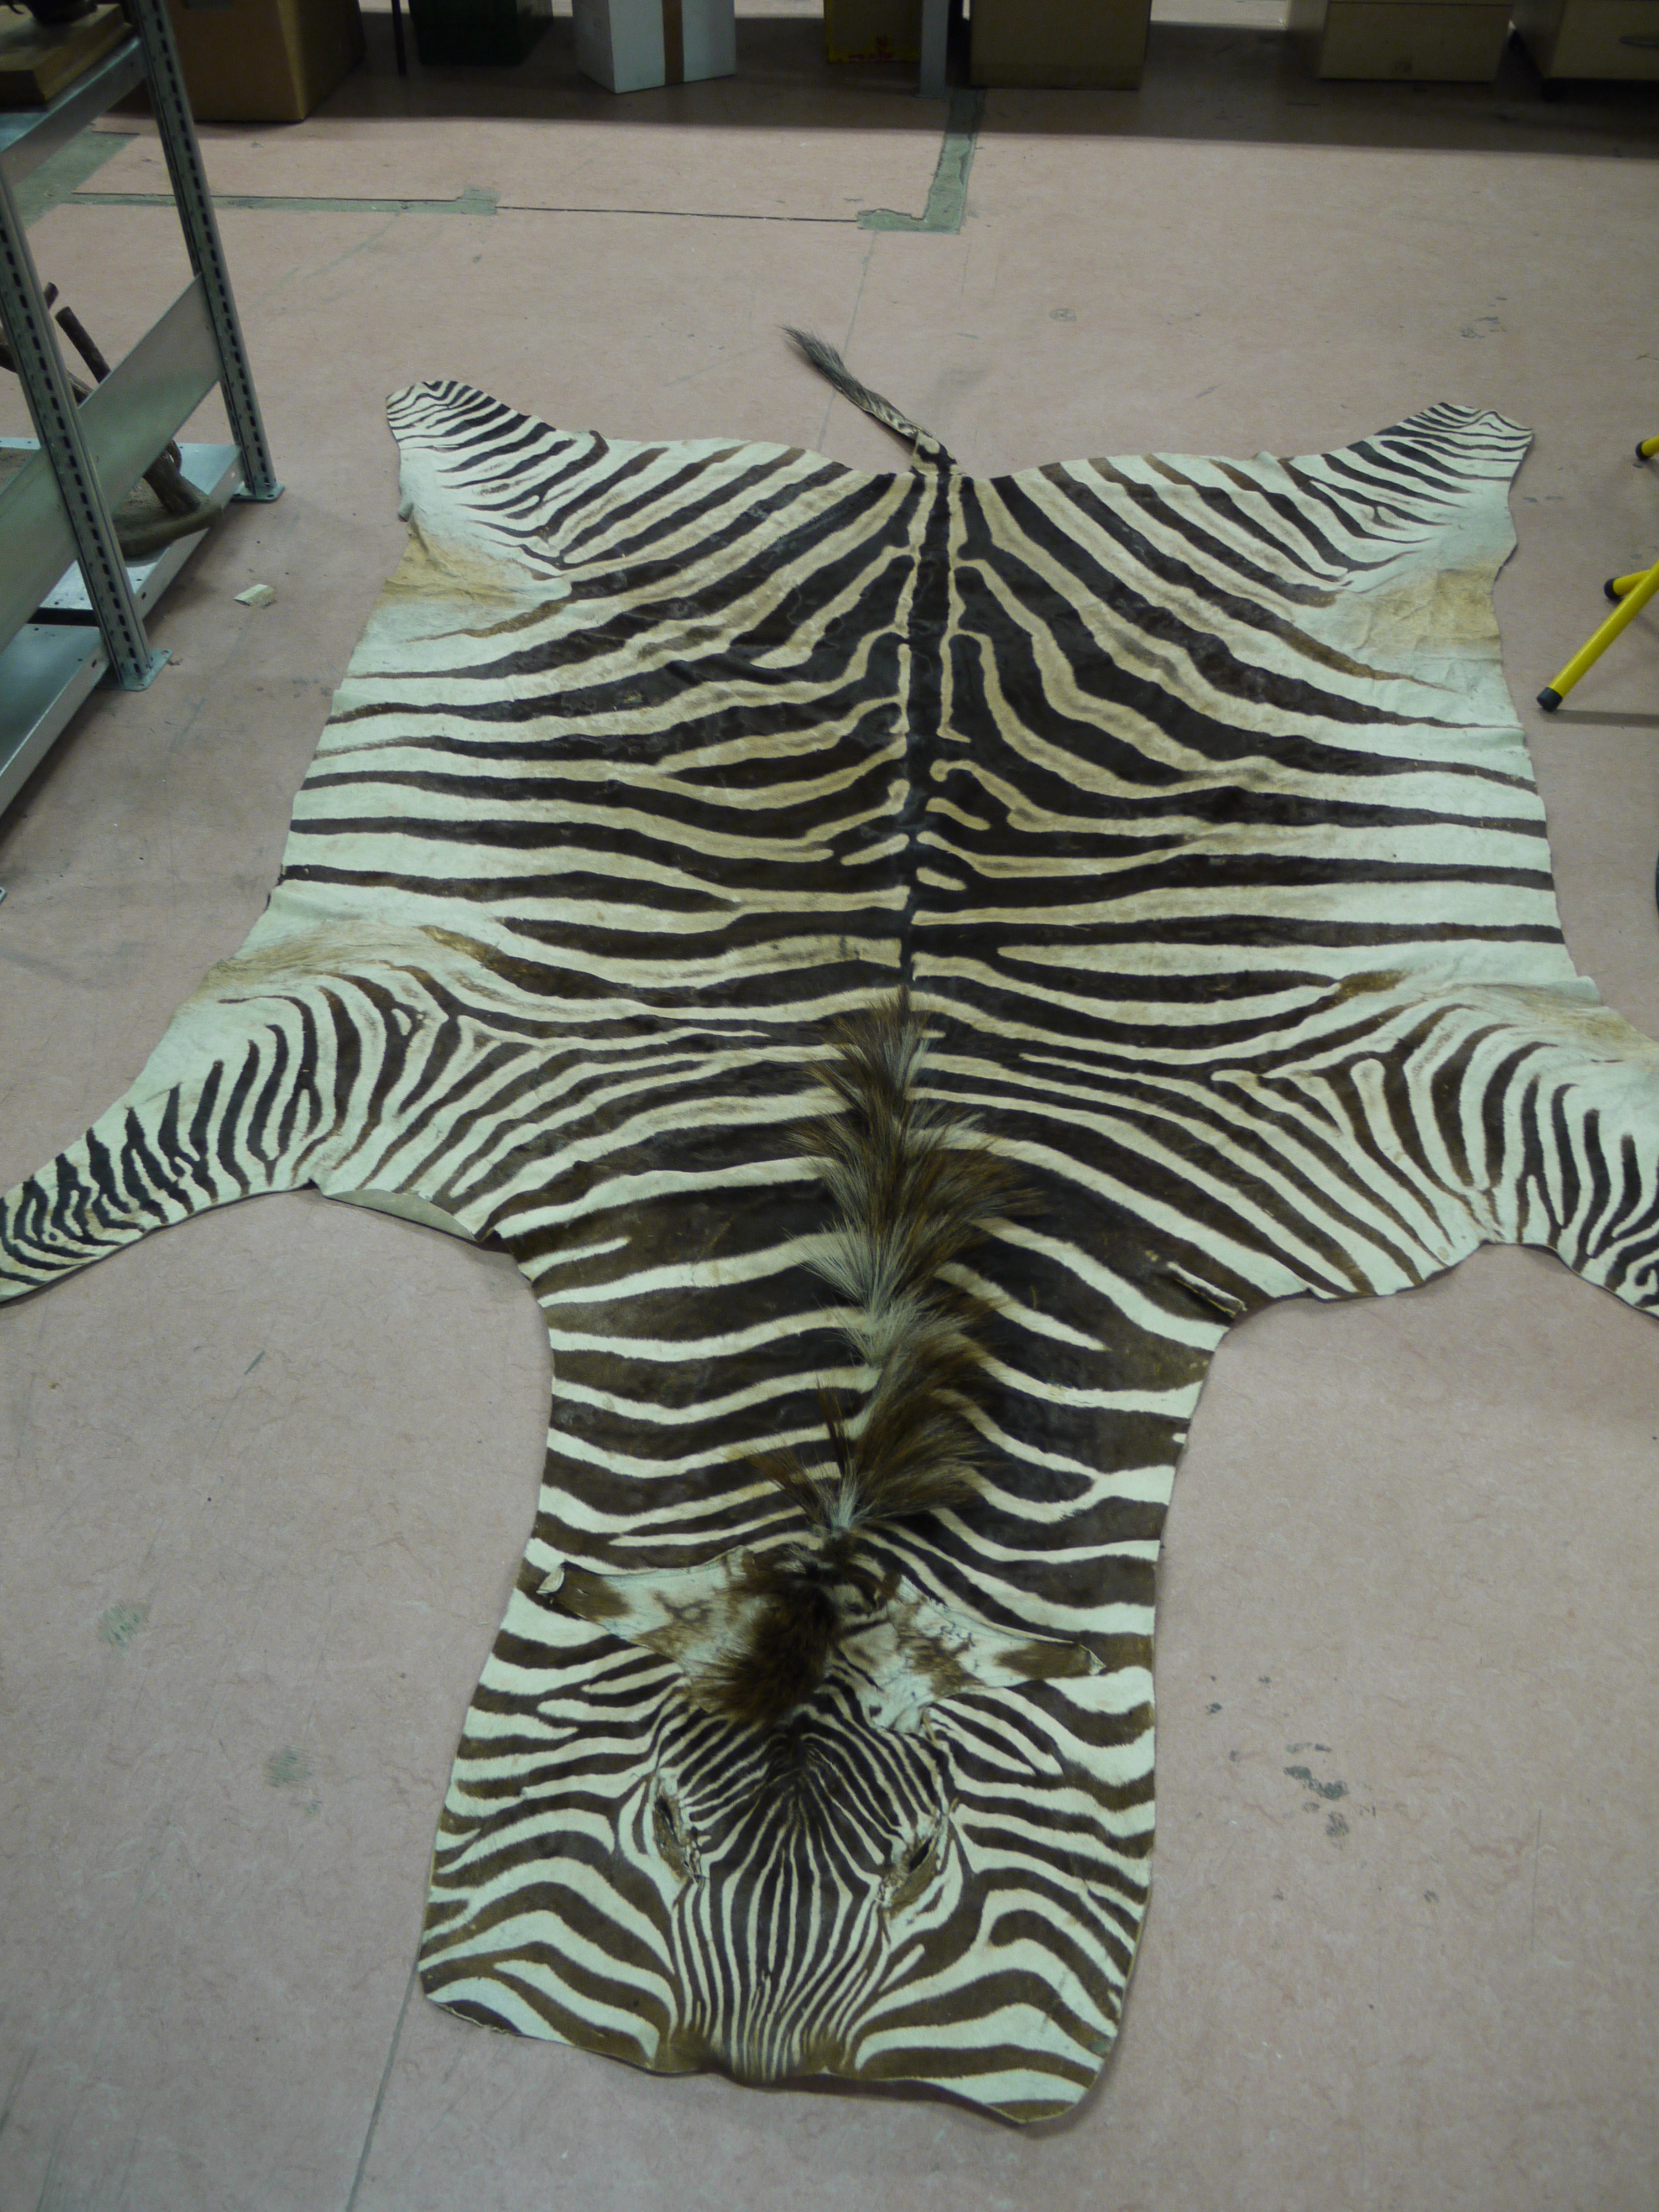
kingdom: Animalia
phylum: Chordata
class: Mammalia
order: Perissodactyla
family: Equidae
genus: Equus
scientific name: Equus quagga
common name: Plains zebra
